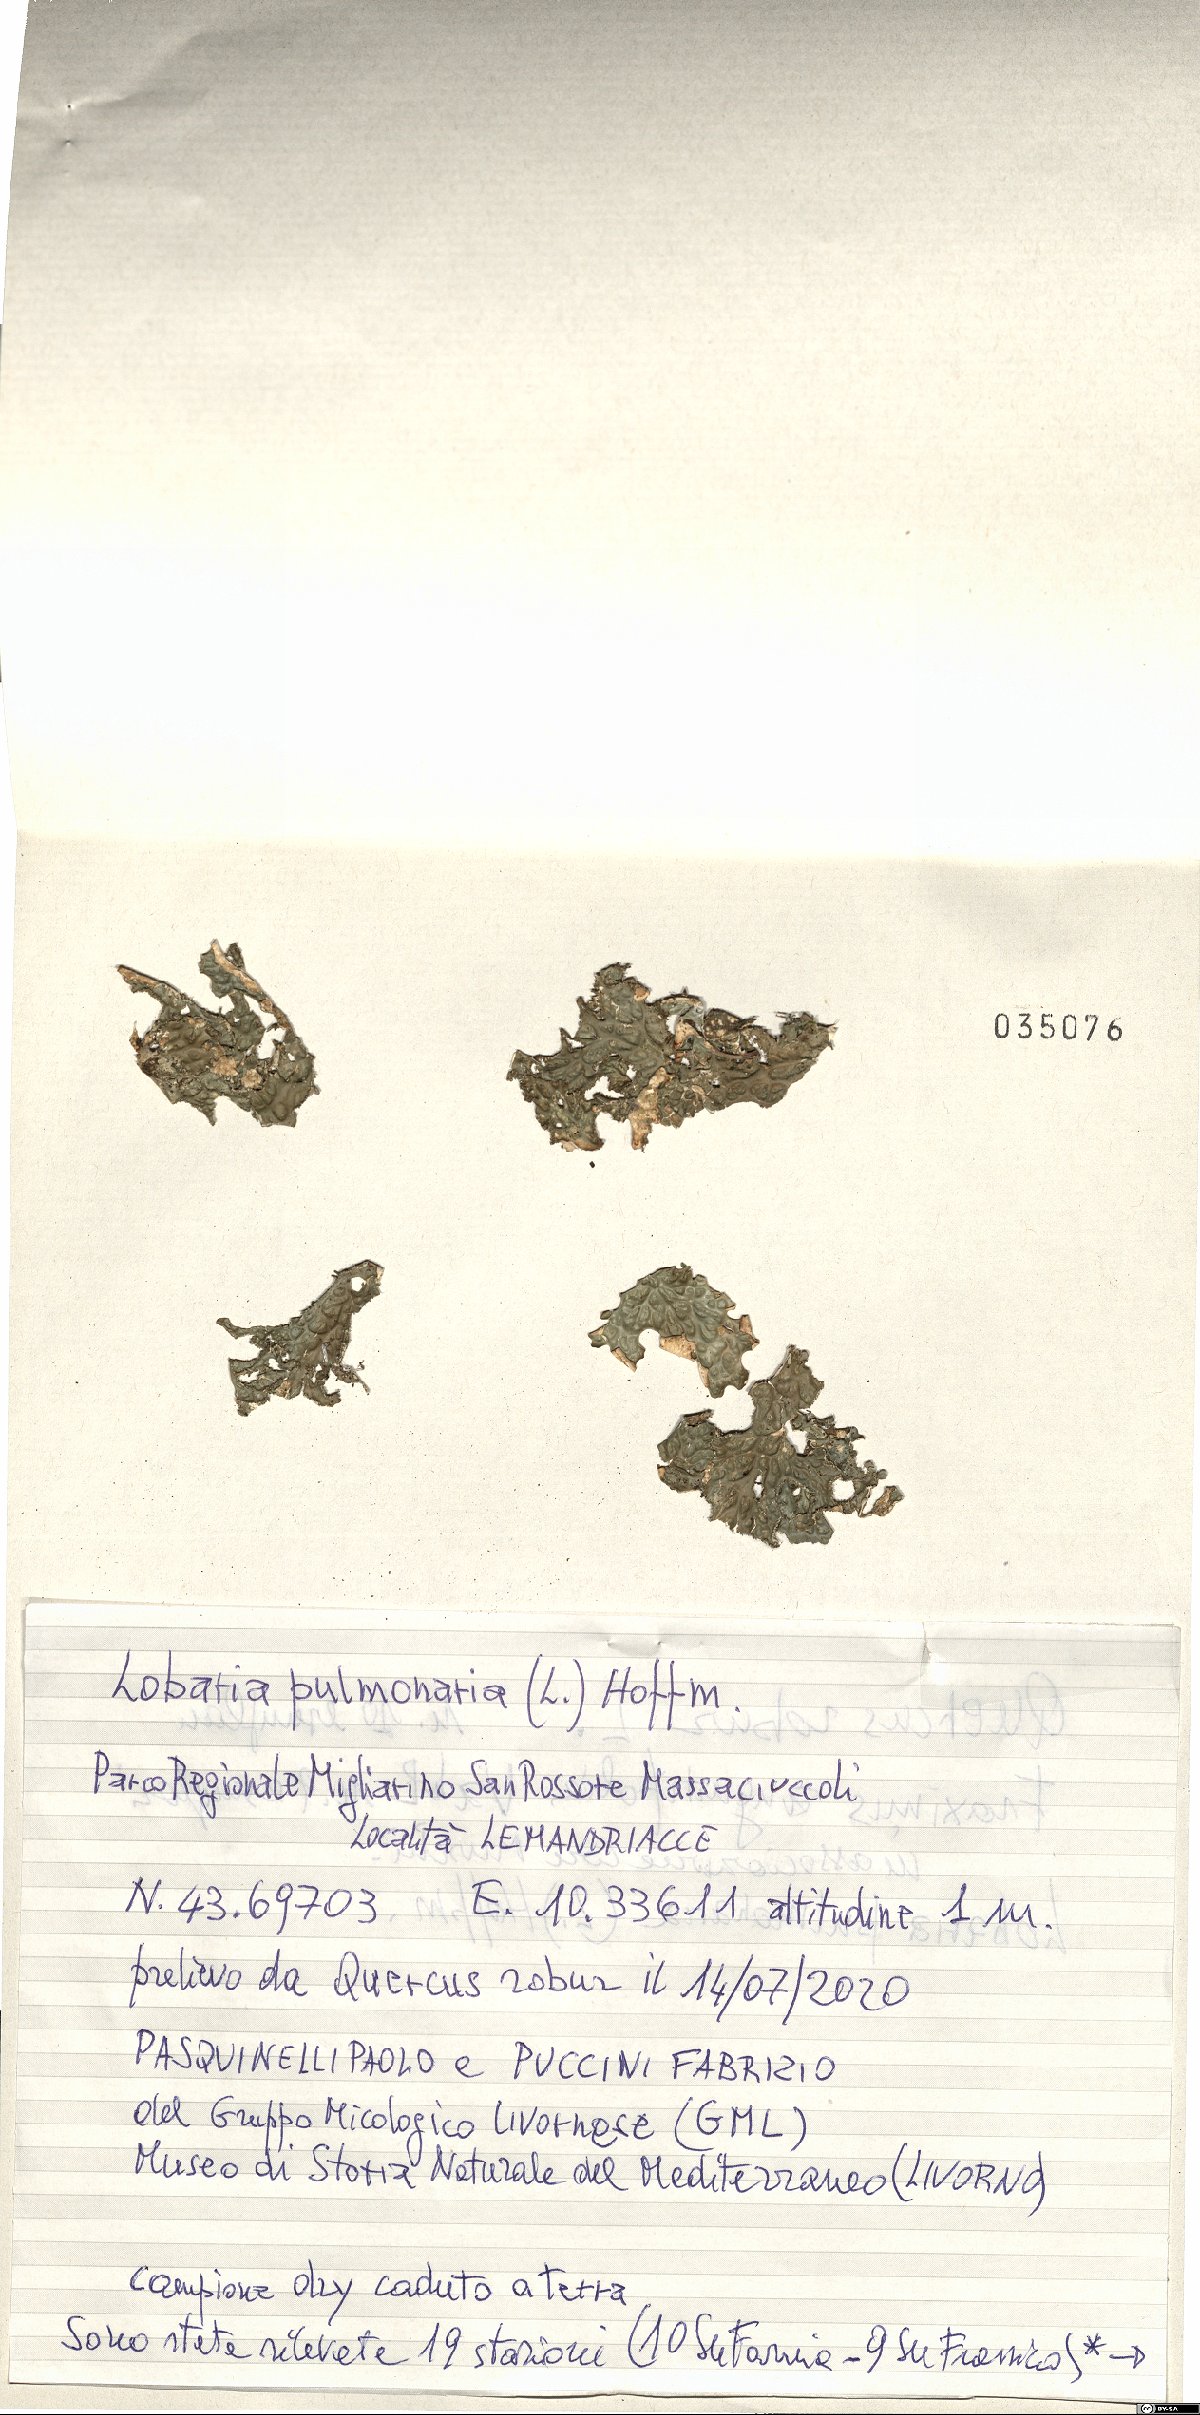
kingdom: Fungi
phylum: Ascomycota
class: Lecanoromycetes
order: Peltigerales
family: Lobariaceae
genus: Lobaria
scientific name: Lobaria pulmonaria
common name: Lungwort
